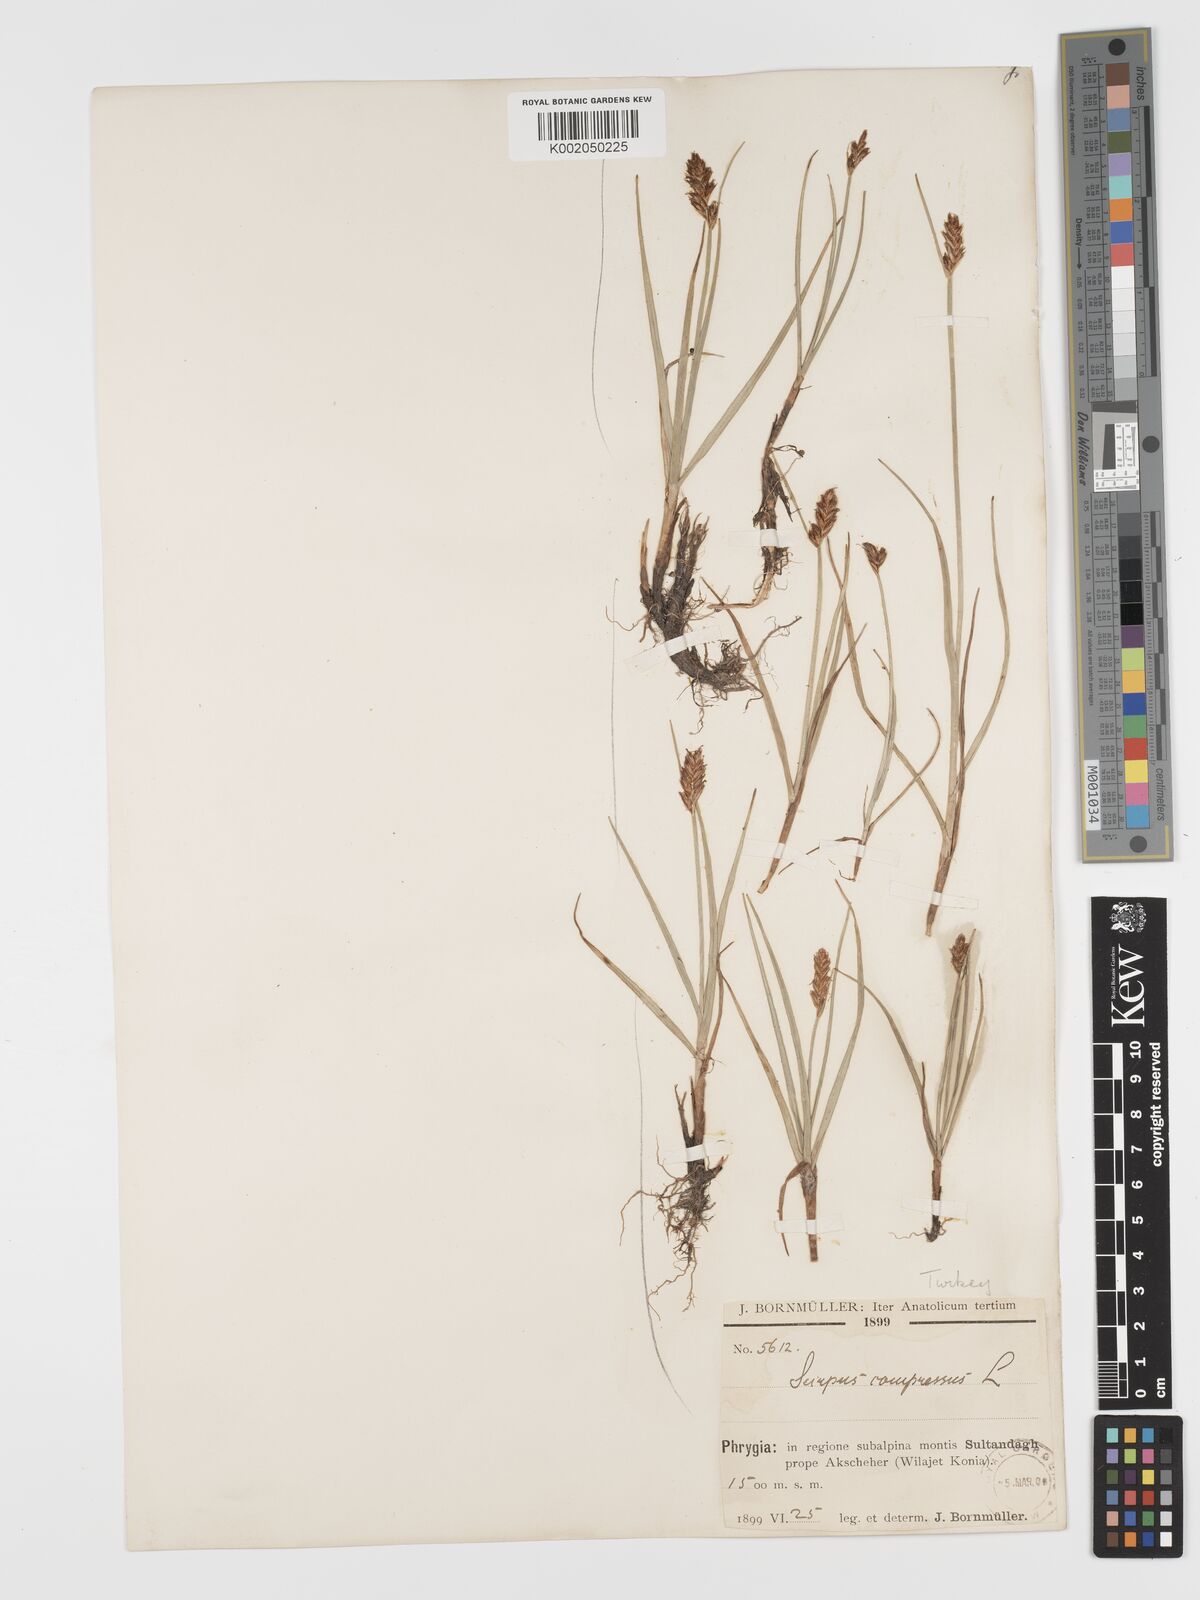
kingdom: Plantae
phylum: Tracheophyta
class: Liliopsida
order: Poales
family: Cyperaceae
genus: Blysmus
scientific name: Blysmus compressus
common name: Flat-sedge
